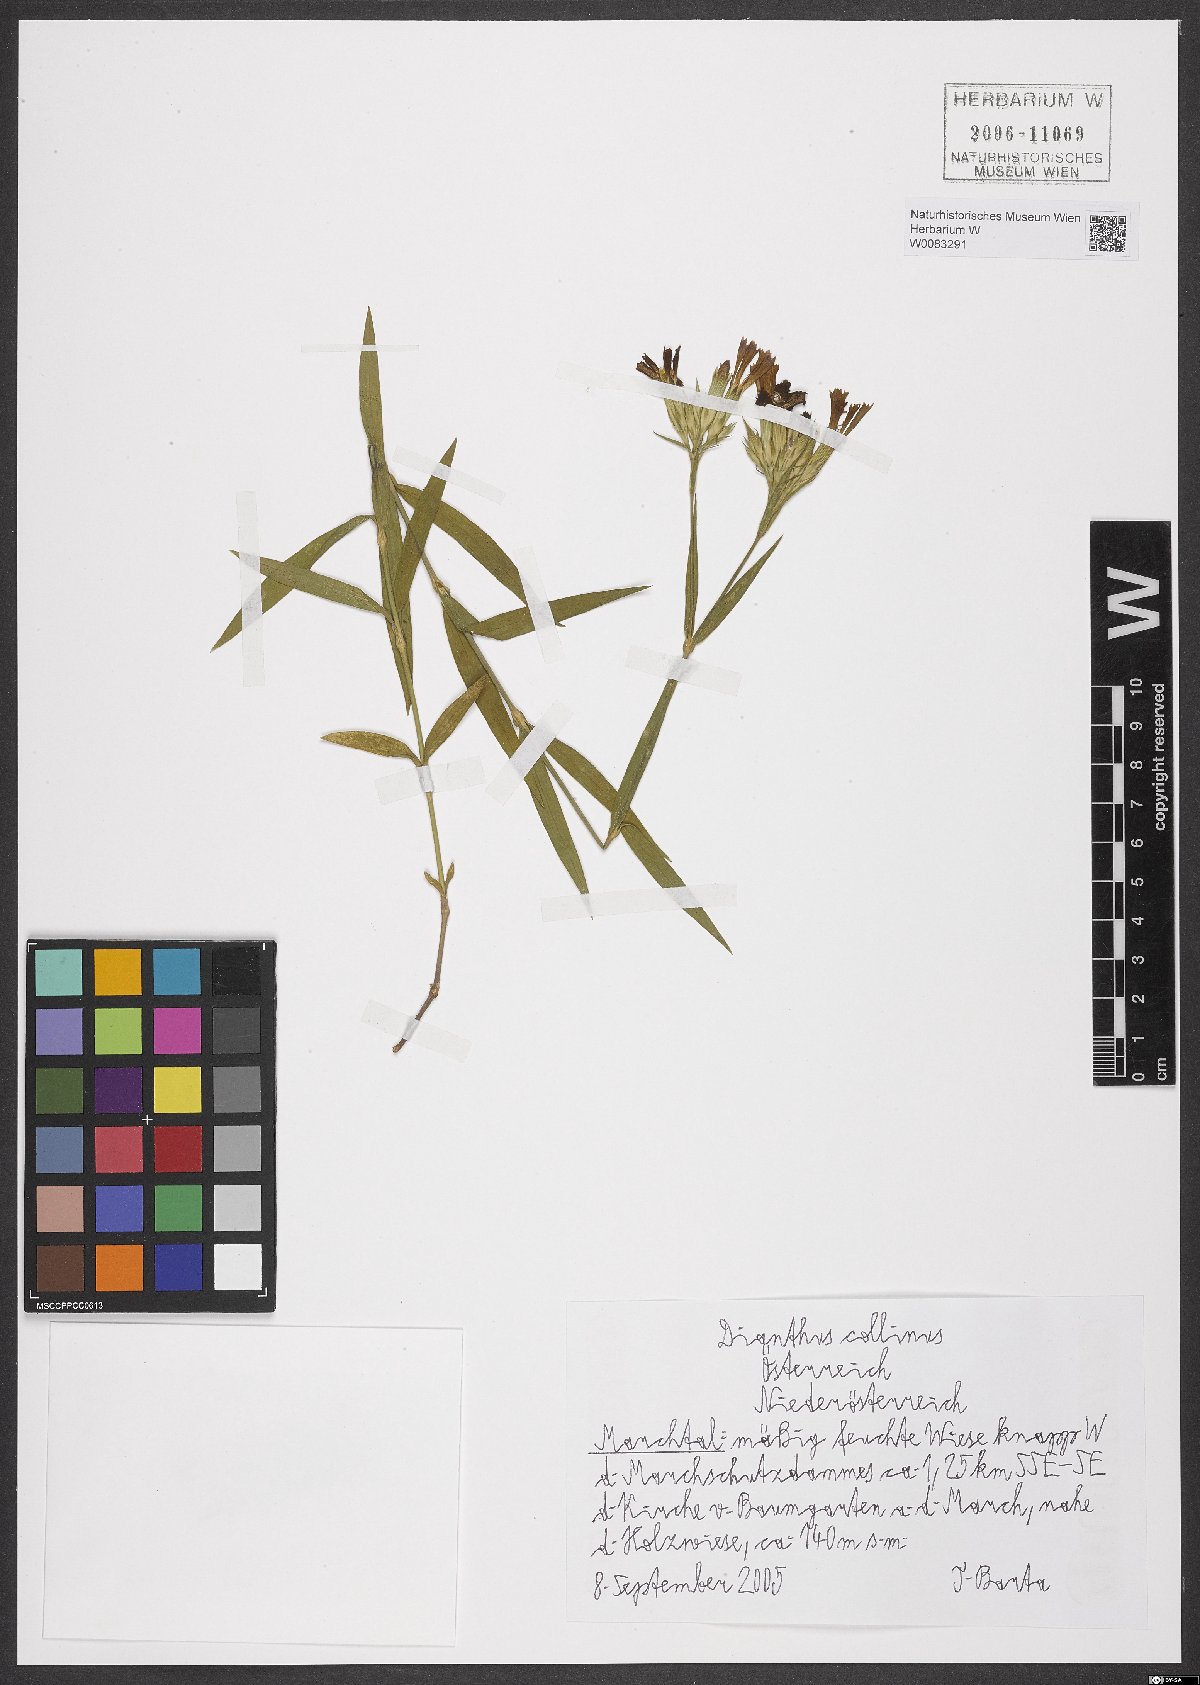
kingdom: Plantae
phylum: Tracheophyta
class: Magnoliopsida
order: Caryophyllales
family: Caryophyllaceae
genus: Dianthus
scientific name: Dianthus collinus
